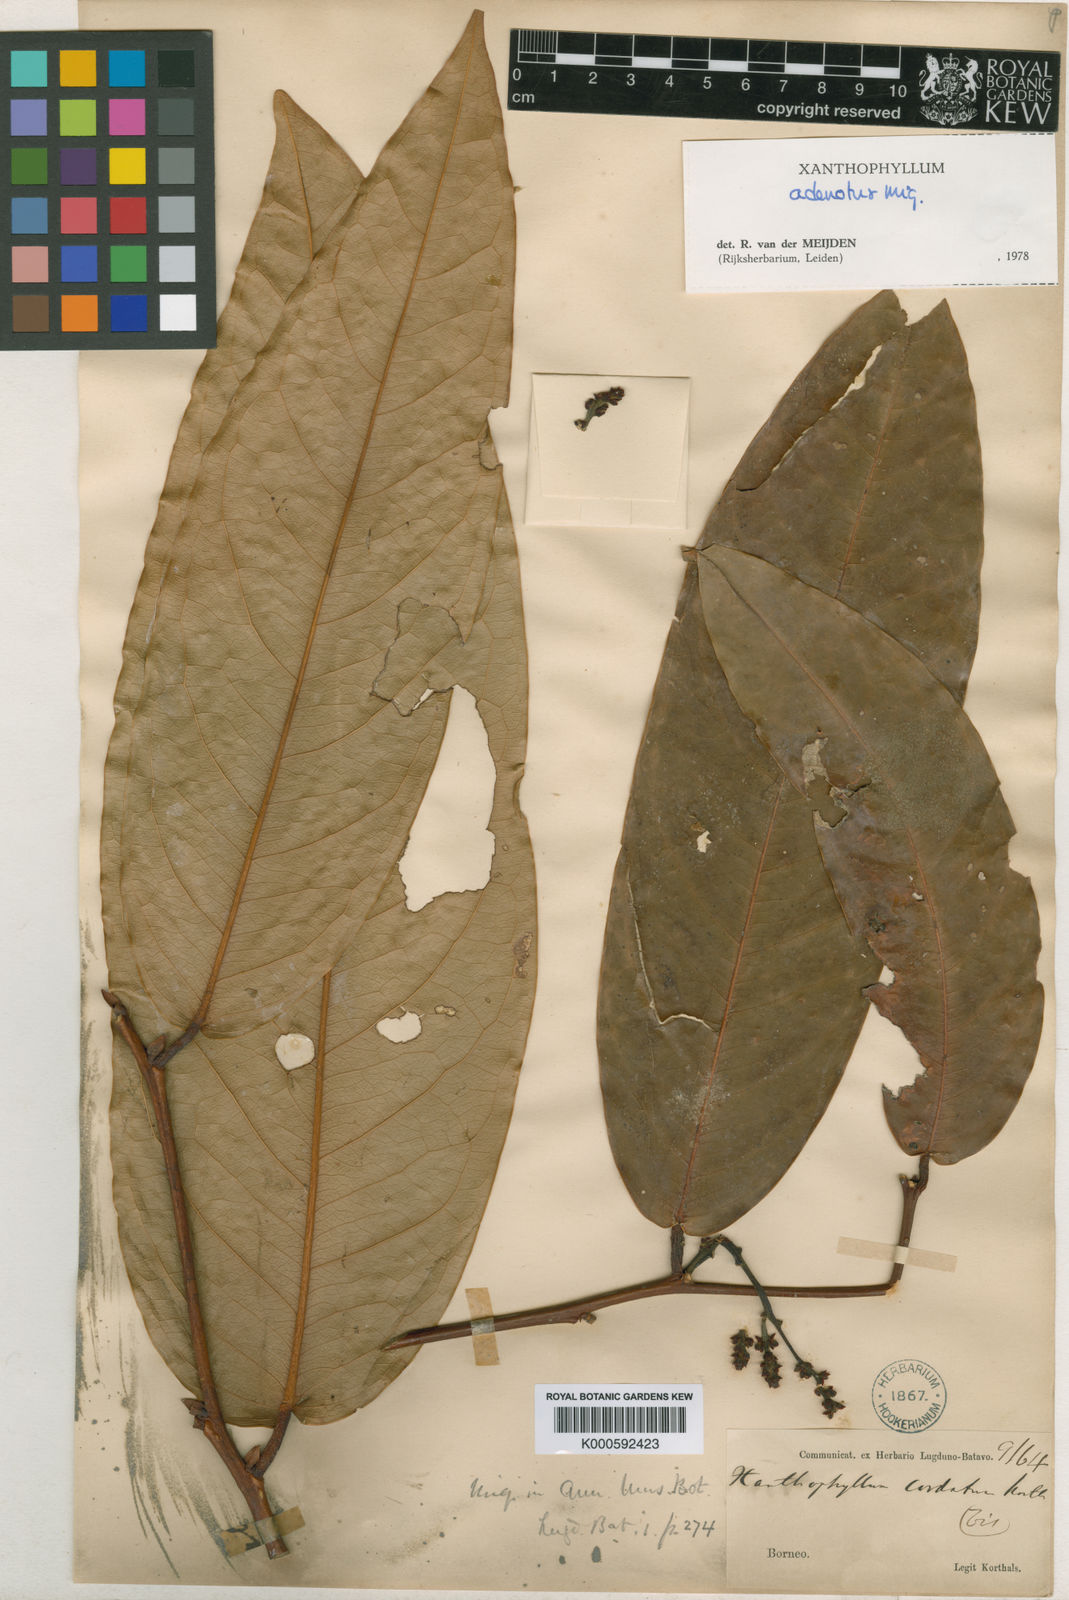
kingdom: Plantae
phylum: Tracheophyta
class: Magnoliopsida
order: Fabales
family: Polygalaceae
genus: Xanthophyllum
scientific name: Xanthophyllum adenotus
